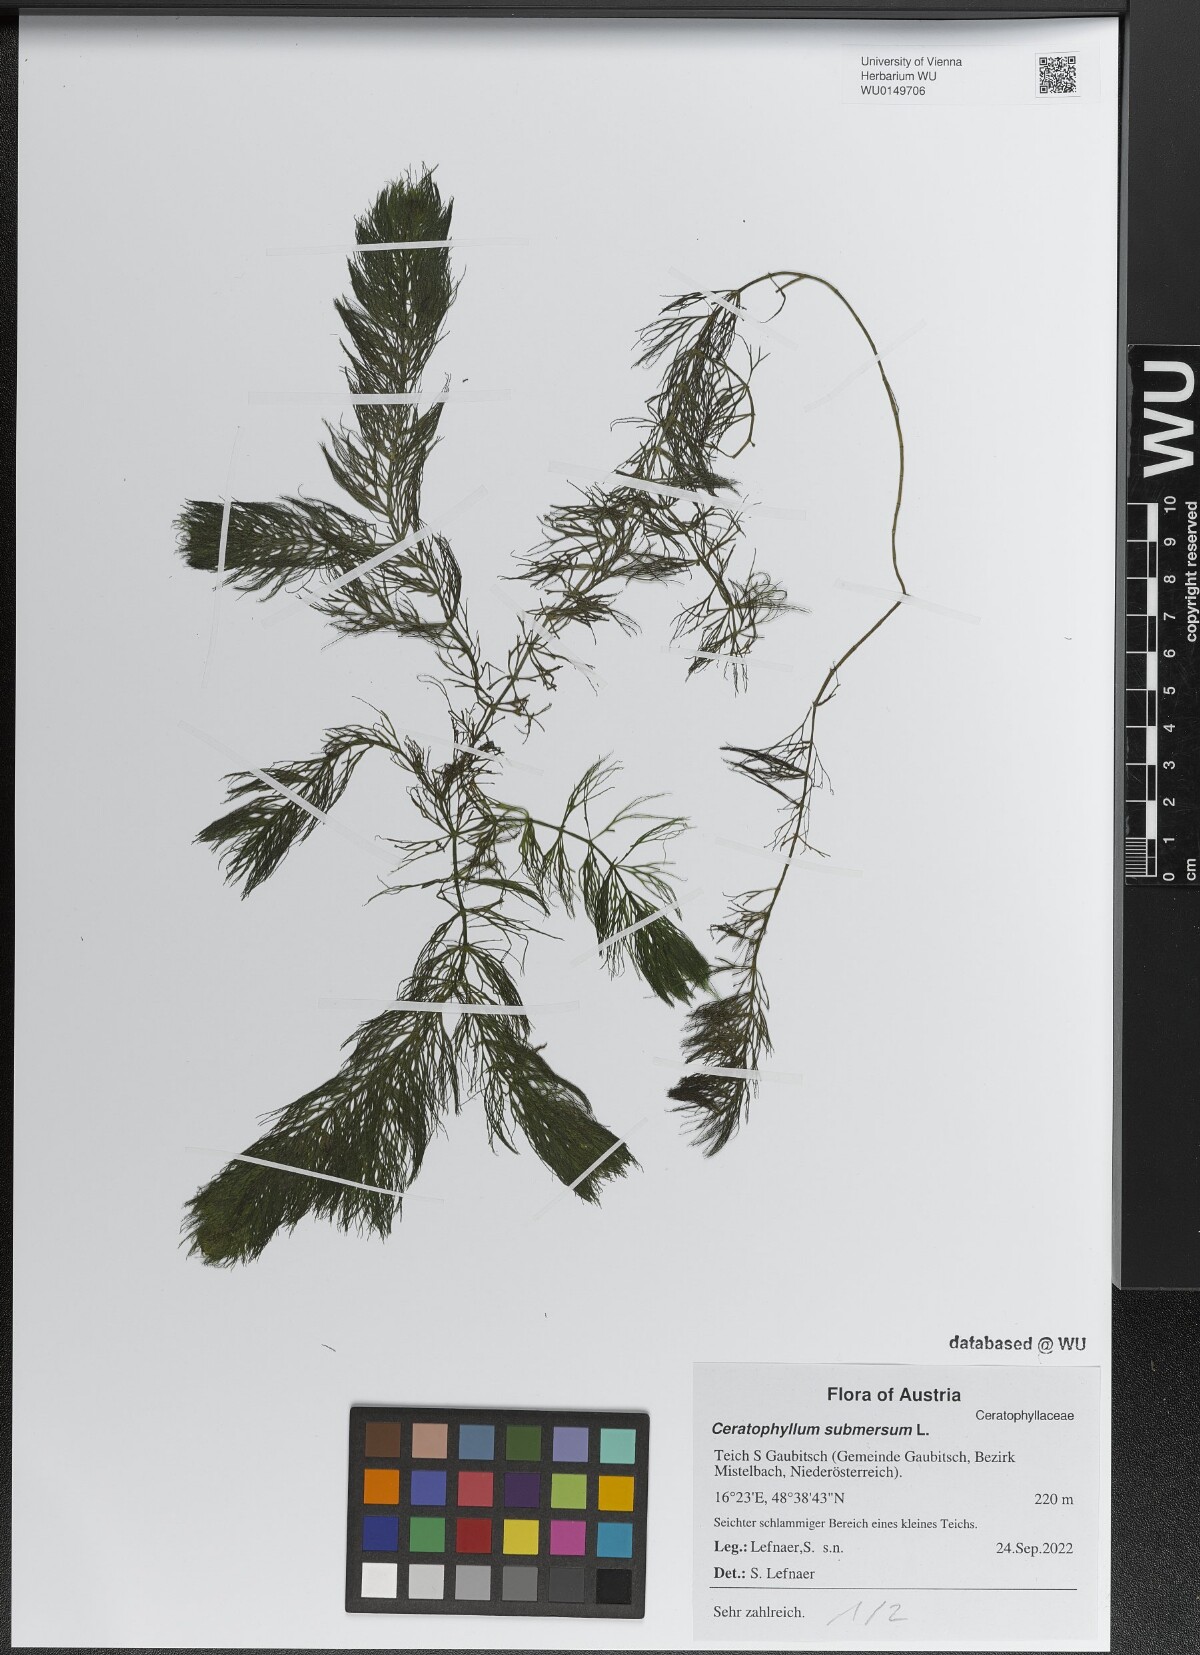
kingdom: Plantae
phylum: Tracheophyta
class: Magnoliopsida
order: Ceratophyllales
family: Ceratophyllaceae
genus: Ceratophyllum
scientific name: Ceratophyllum submersum
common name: Soft hornwort
